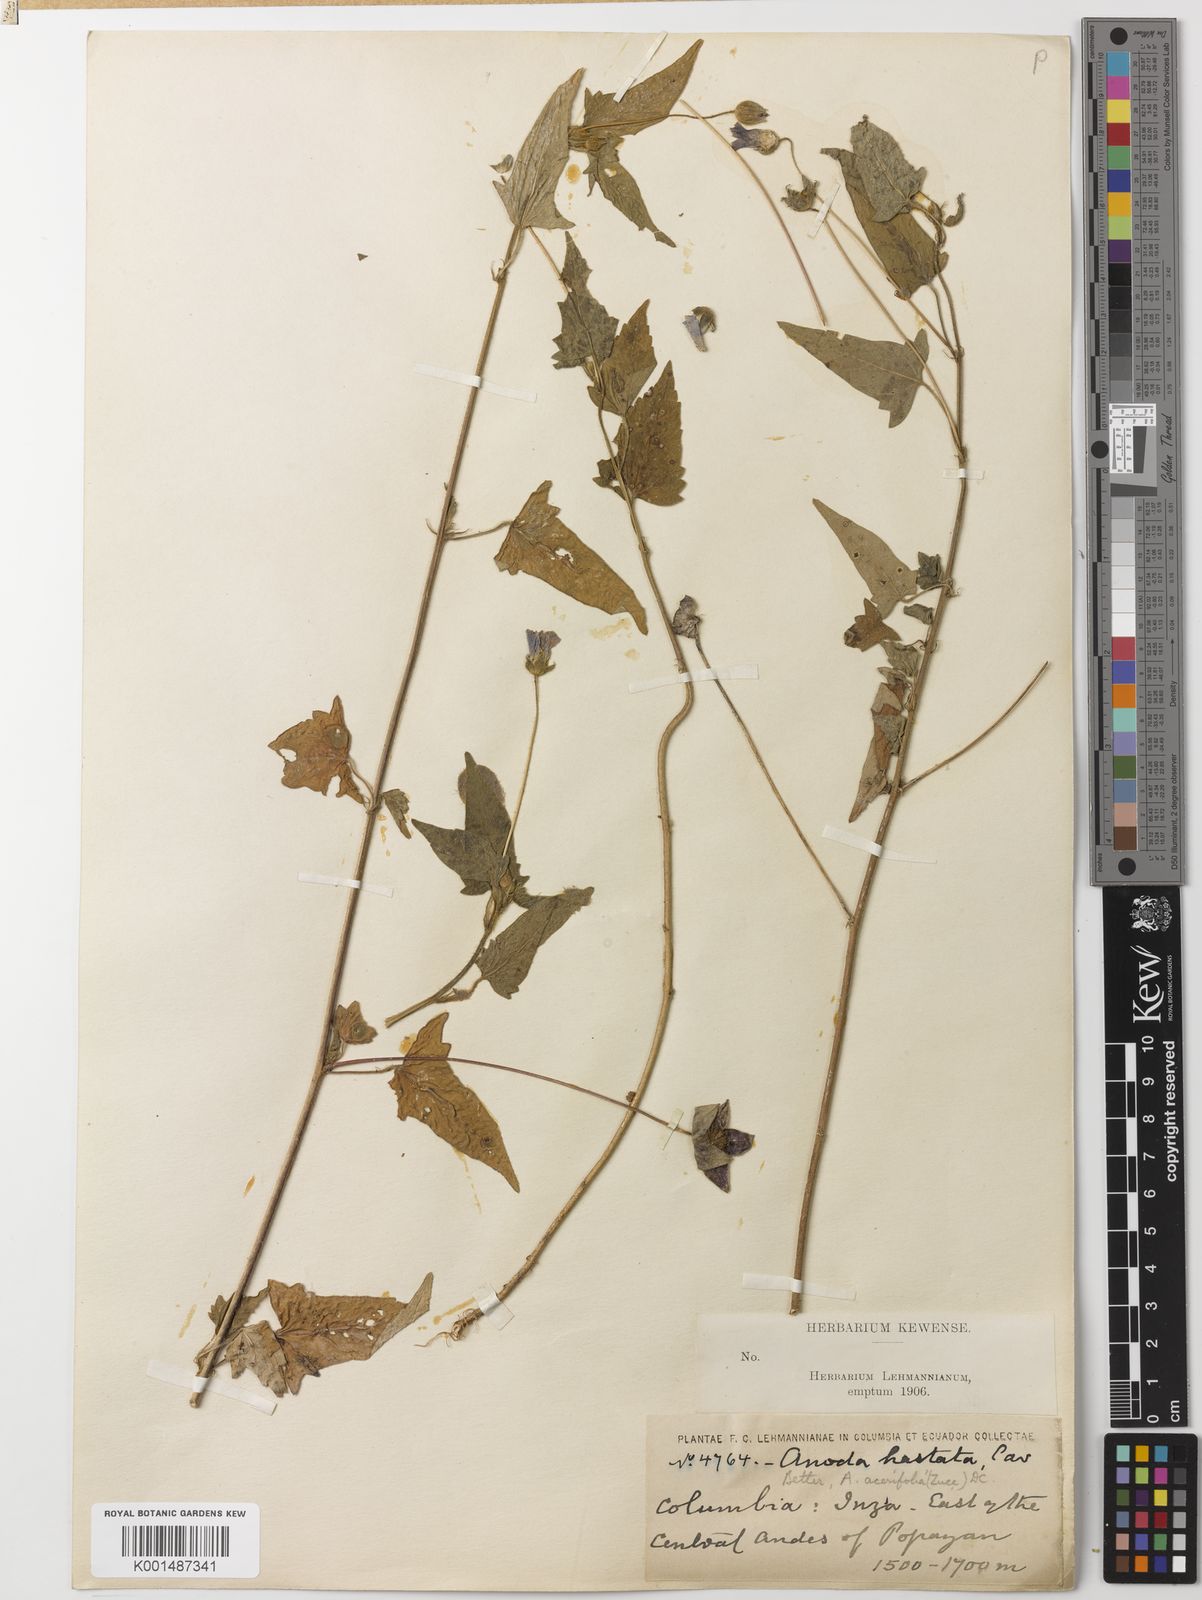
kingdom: Plantae
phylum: Tracheophyta
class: Magnoliopsida
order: Malvales
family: Malvaceae
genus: Anoda
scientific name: Anoda cristata
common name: Spurred anoda
